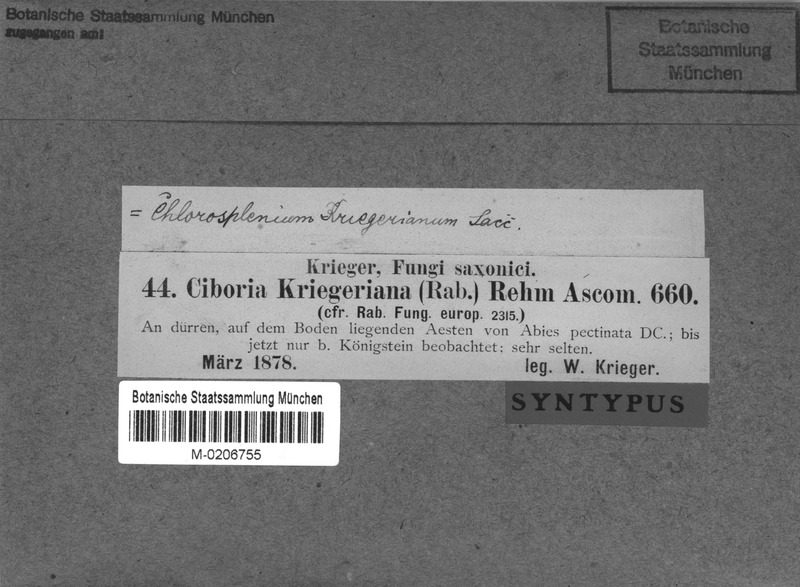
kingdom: Fungi
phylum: Ascomycota
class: Leotiomycetes
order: Helotiales
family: Rutstroemiaceae
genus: Rutstroemia
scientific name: Rutstroemia elatina
